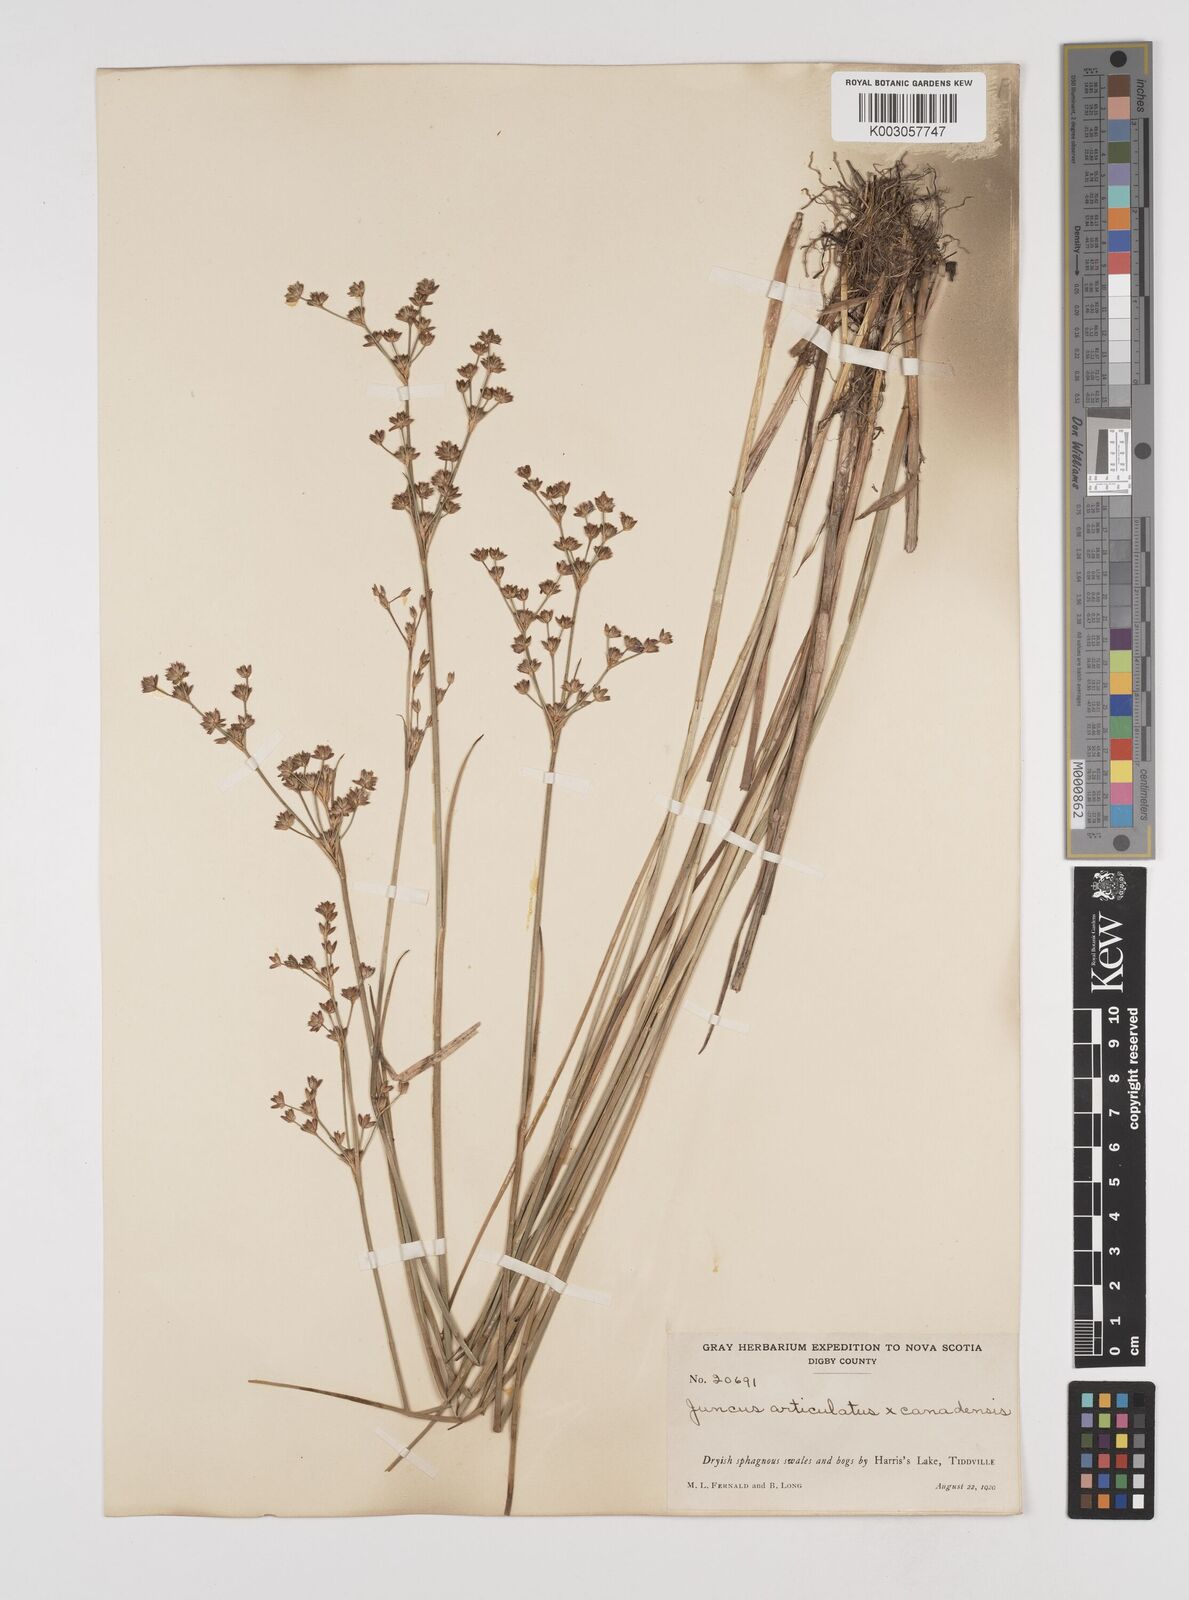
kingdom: Plantae
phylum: Tracheophyta
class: Liliopsida
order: Poales
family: Juncaceae
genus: Juncus
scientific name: Juncus articulatus
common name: Jointed rush
